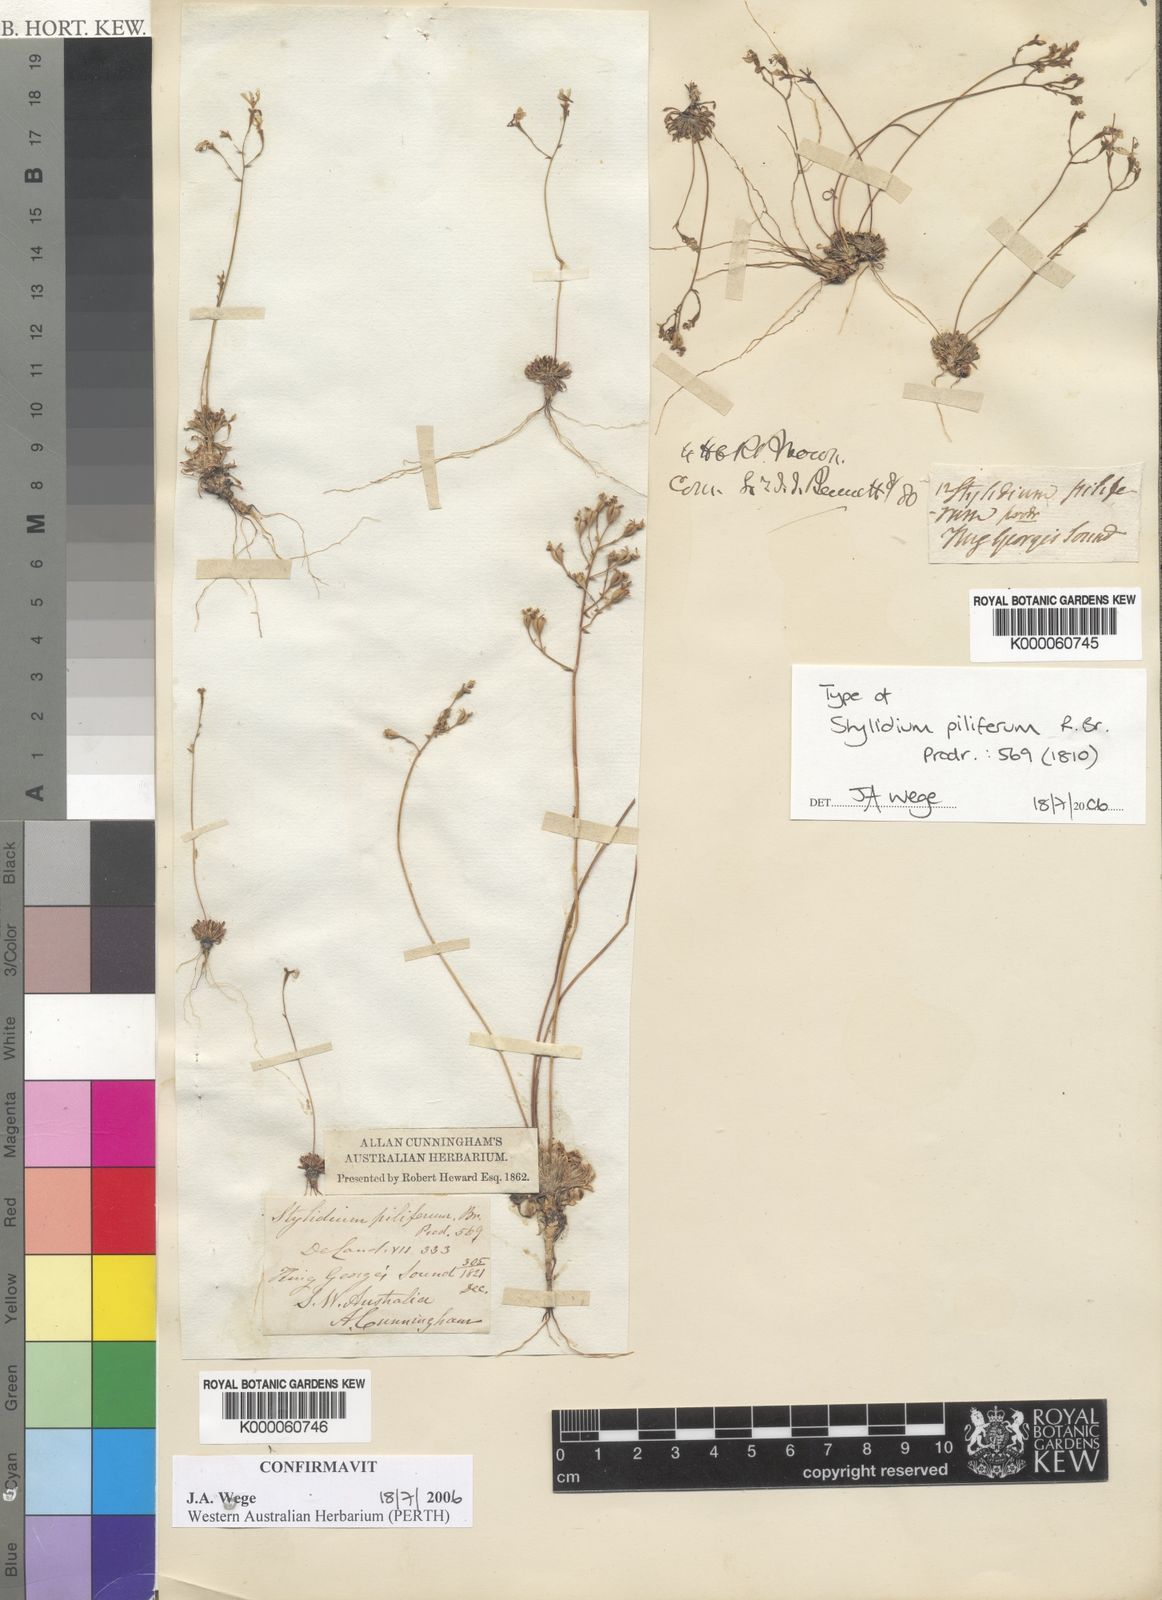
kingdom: Plantae
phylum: Tracheophyta
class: Magnoliopsida
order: Asterales
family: Stylidiaceae
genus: Stylidium
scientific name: Stylidium piliferum
